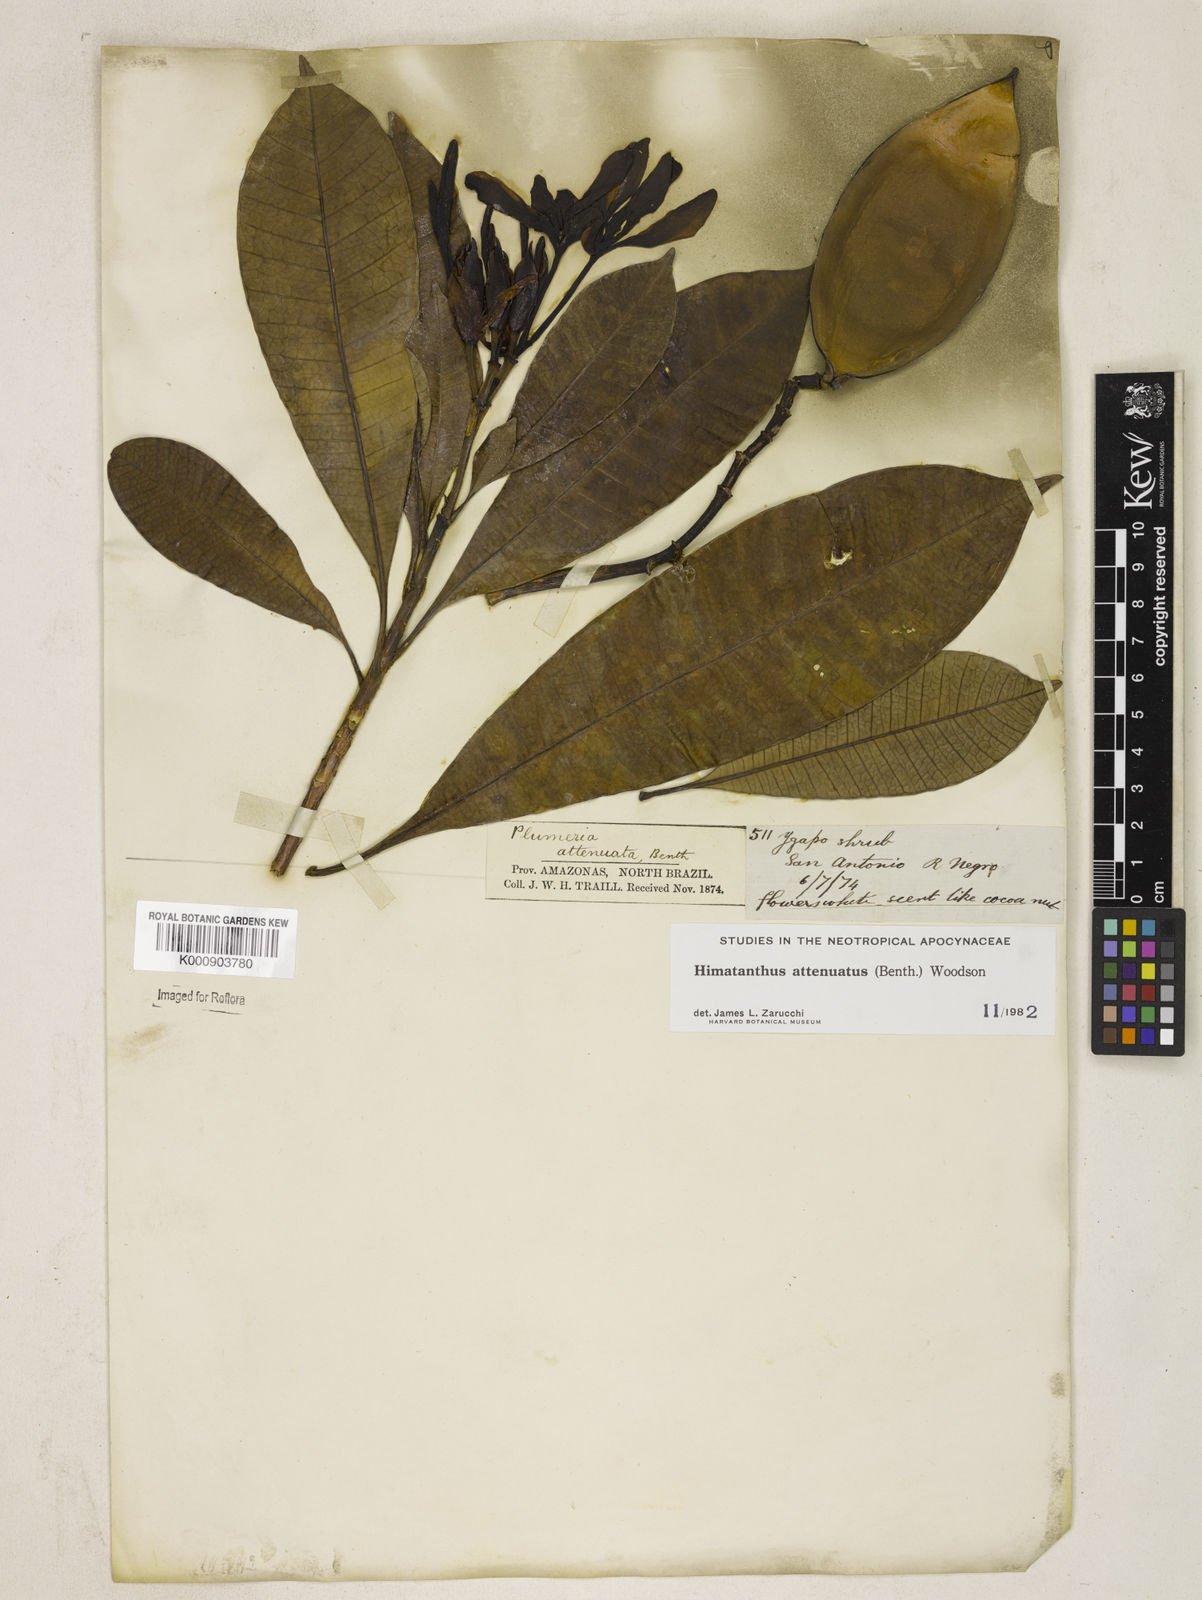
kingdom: Plantae
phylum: Tracheophyta
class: Magnoliopsida
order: Gentianales
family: Apocynaceae
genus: Himatanthus
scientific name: Himatanthus attenuatus
